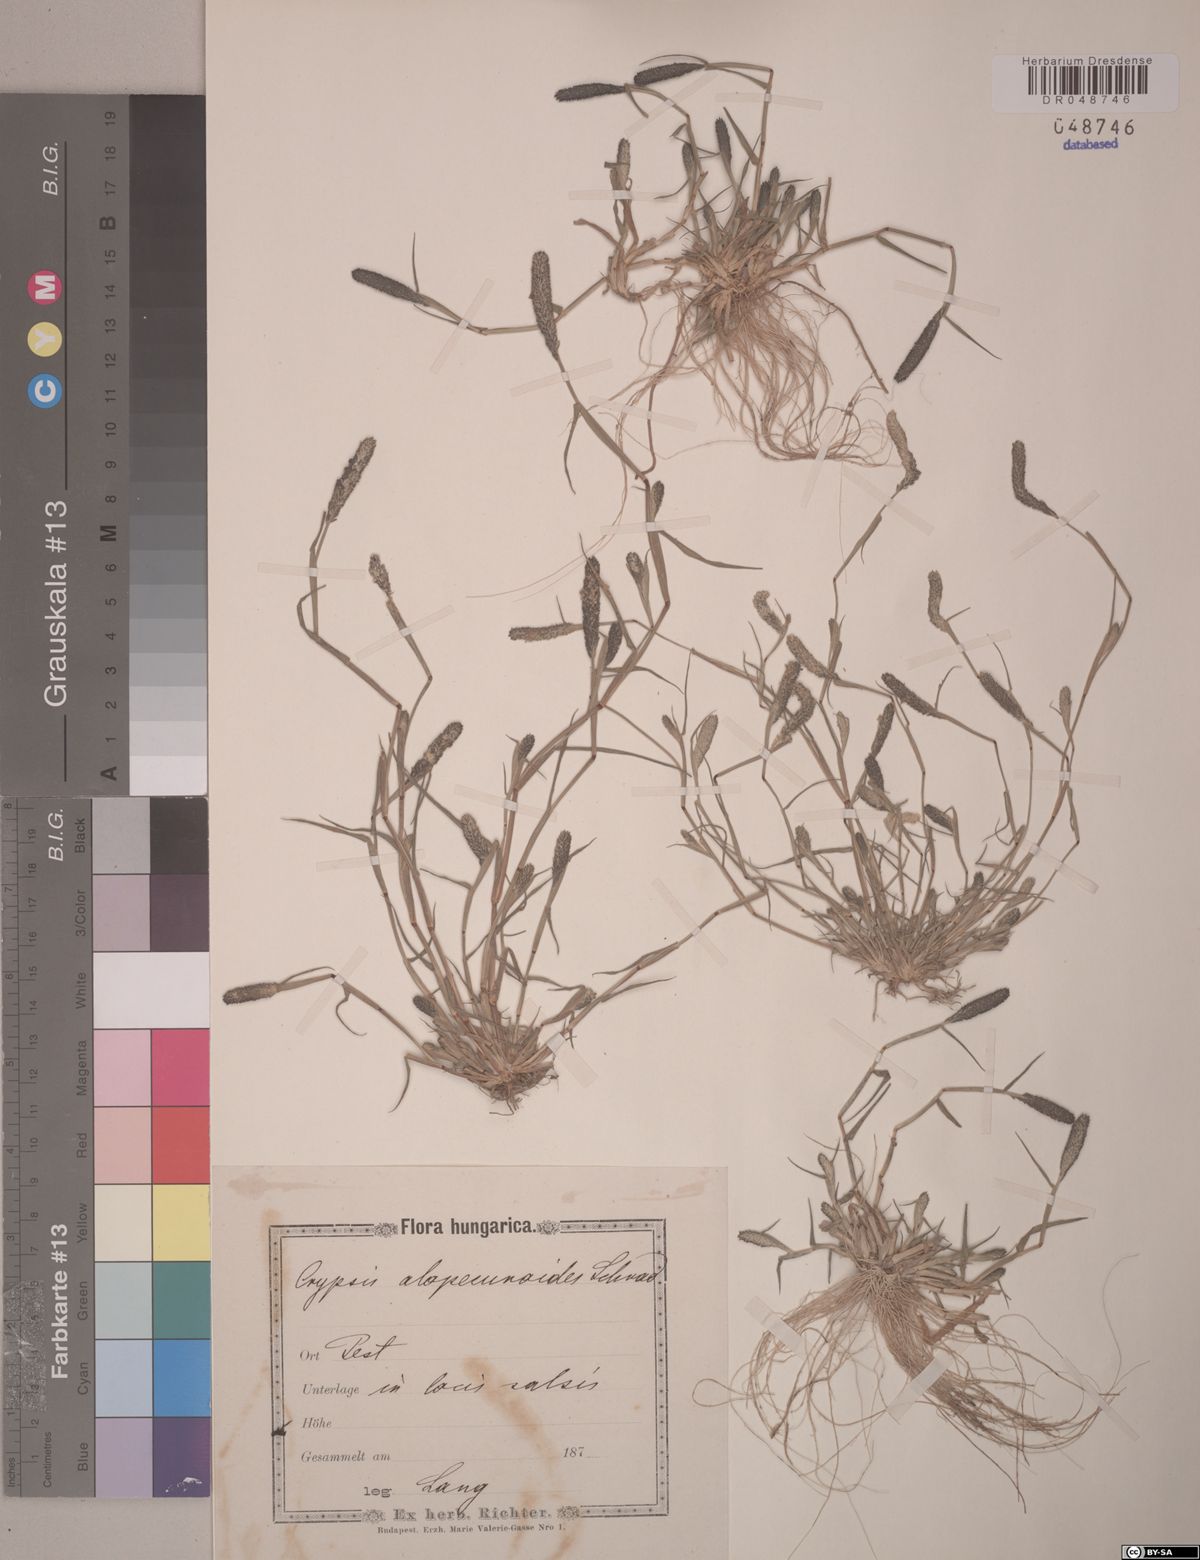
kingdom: Plantae
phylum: Tracheophyta
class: Liliopsida
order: Poales
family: Poaceae
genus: Sporobolus
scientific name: Sporobolus alopecuroides
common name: Foxtail pricklegrass
